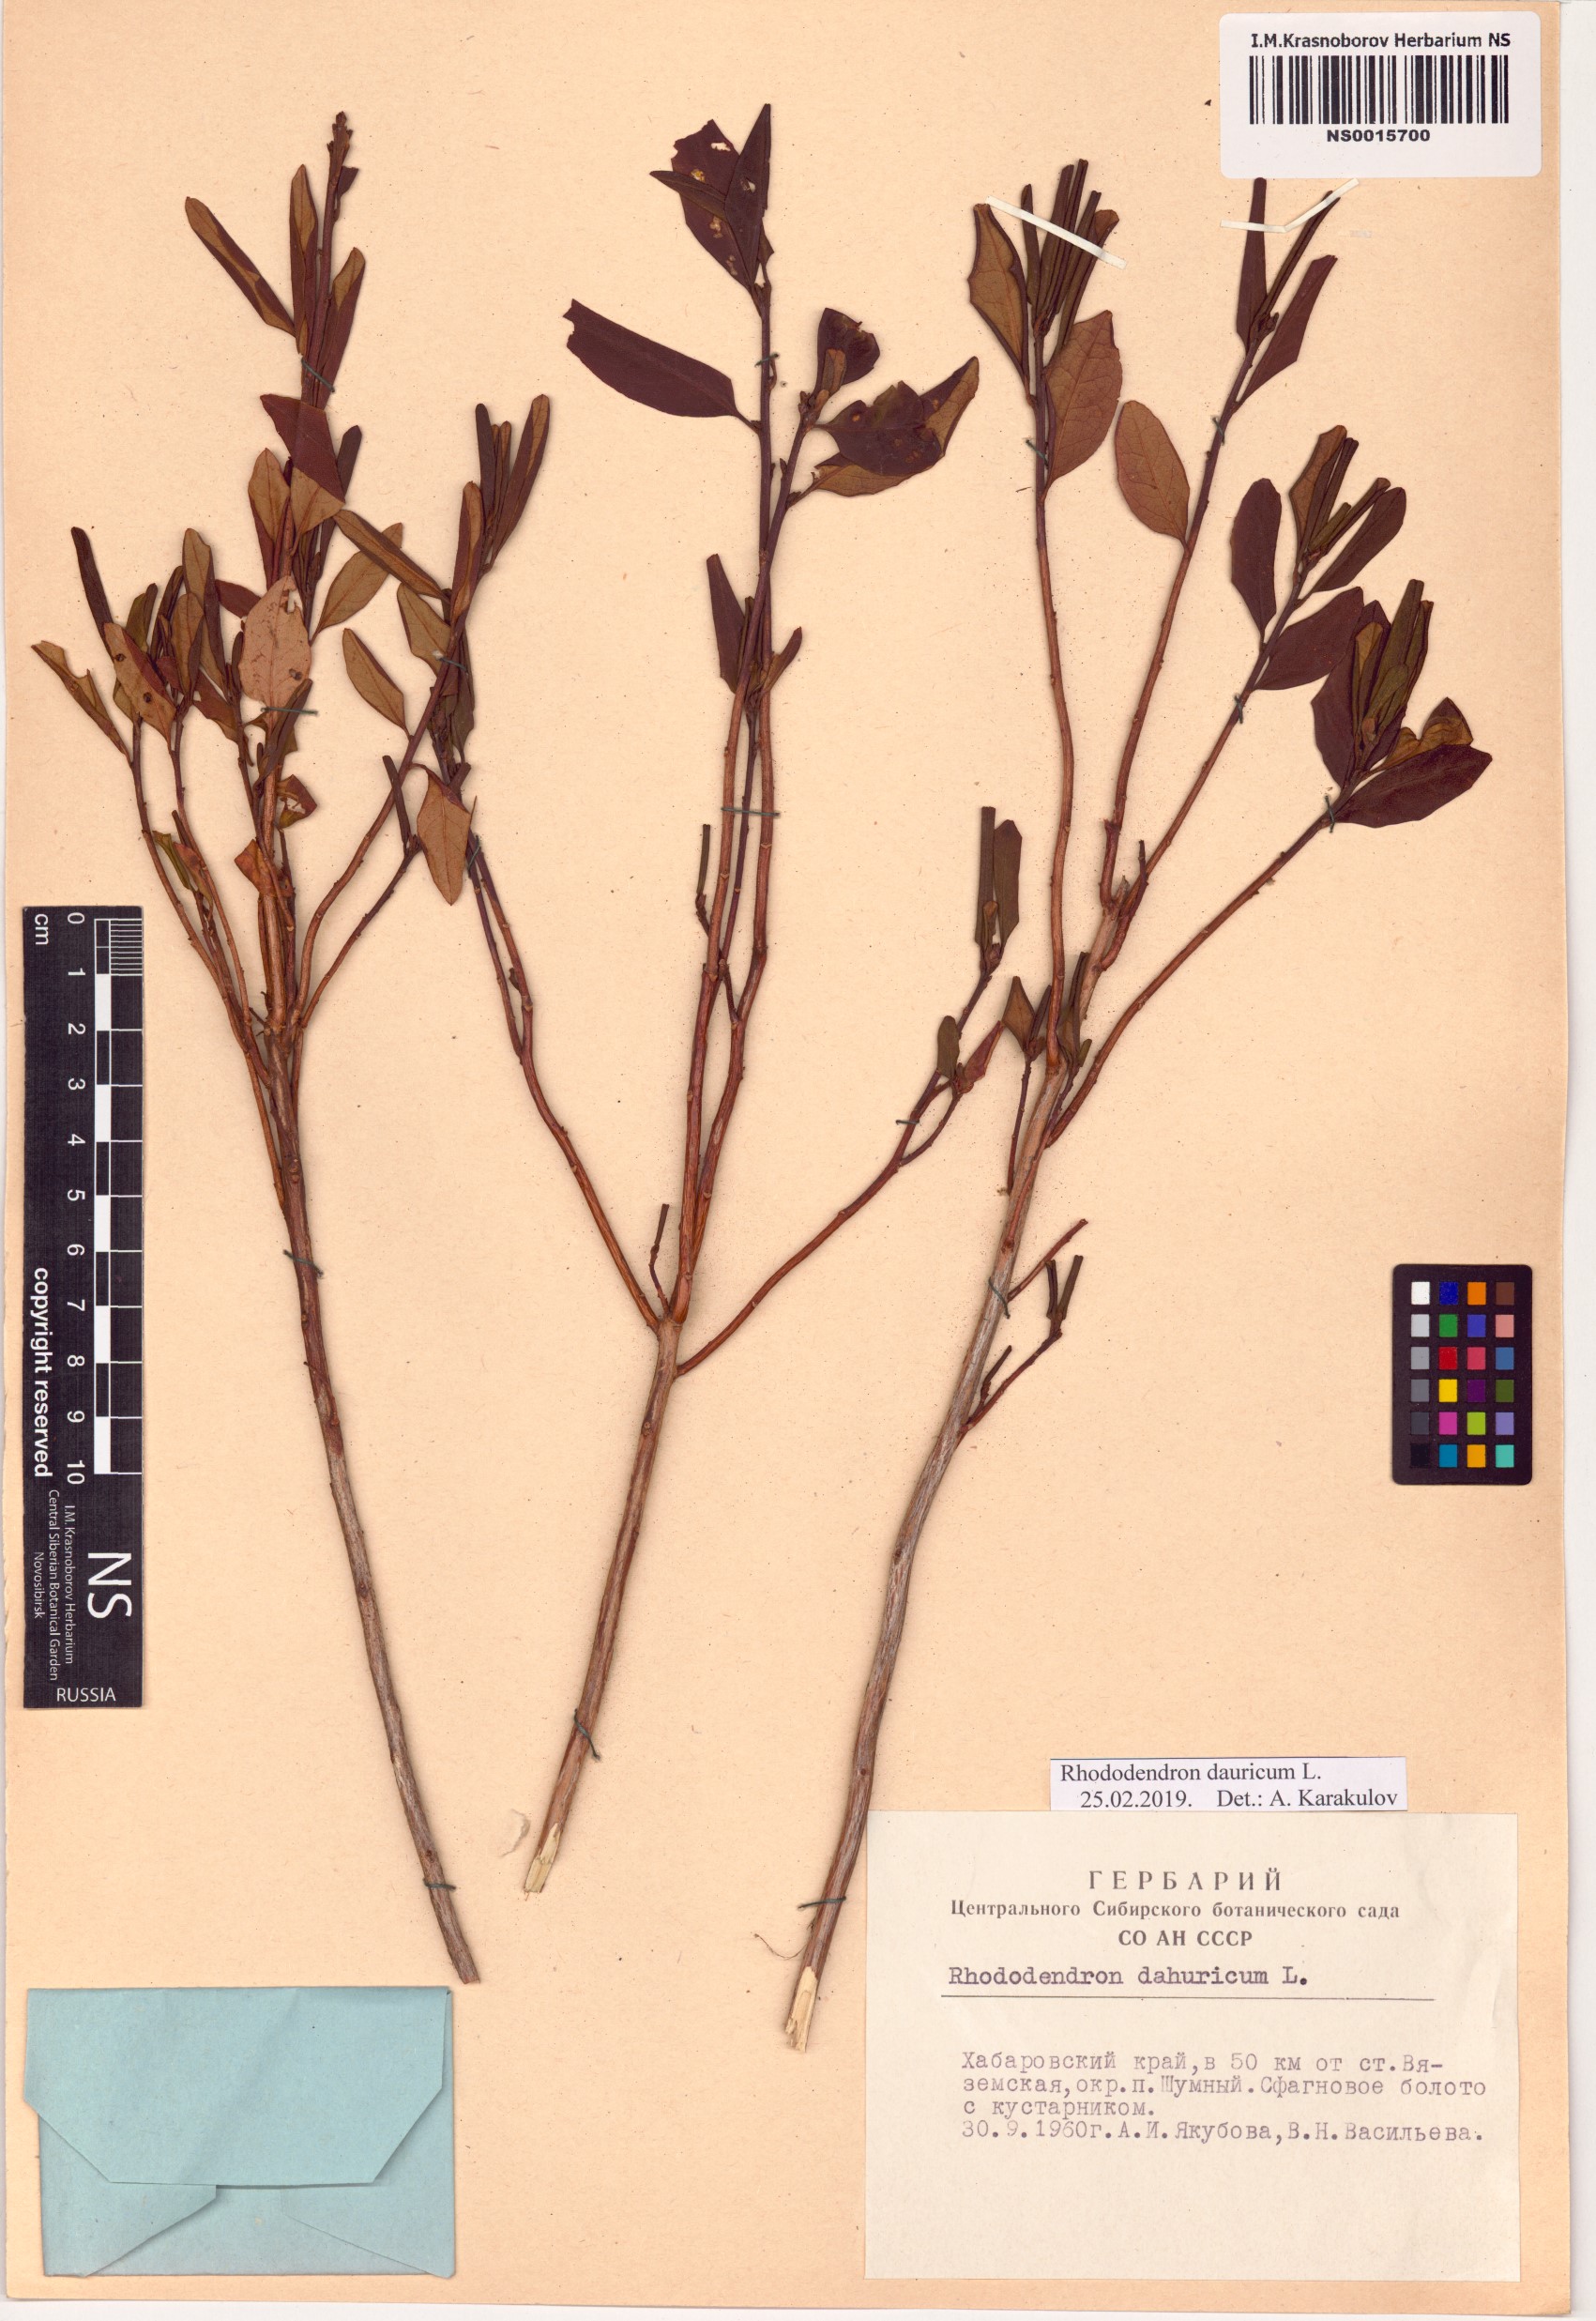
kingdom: Plantae
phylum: Tracheophyta
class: Magnoliopsida
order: Ericales
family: Ericaceae
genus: Rhododendron
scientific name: Rhododendron dauricum
